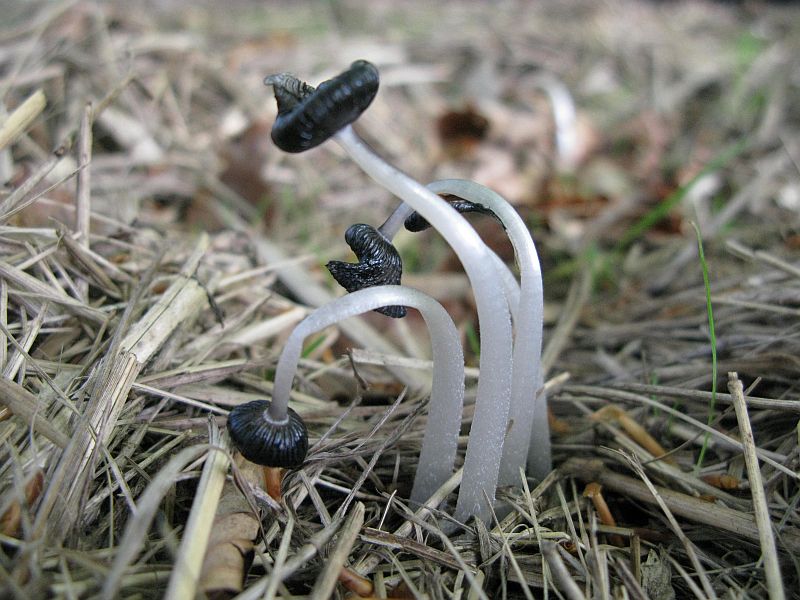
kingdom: Fungi
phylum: Basidiomycota
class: Agaricomycetes
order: Agaricales
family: Psathyrellaceae
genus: Coprinopsis
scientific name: Coprinopsis macrocephala
